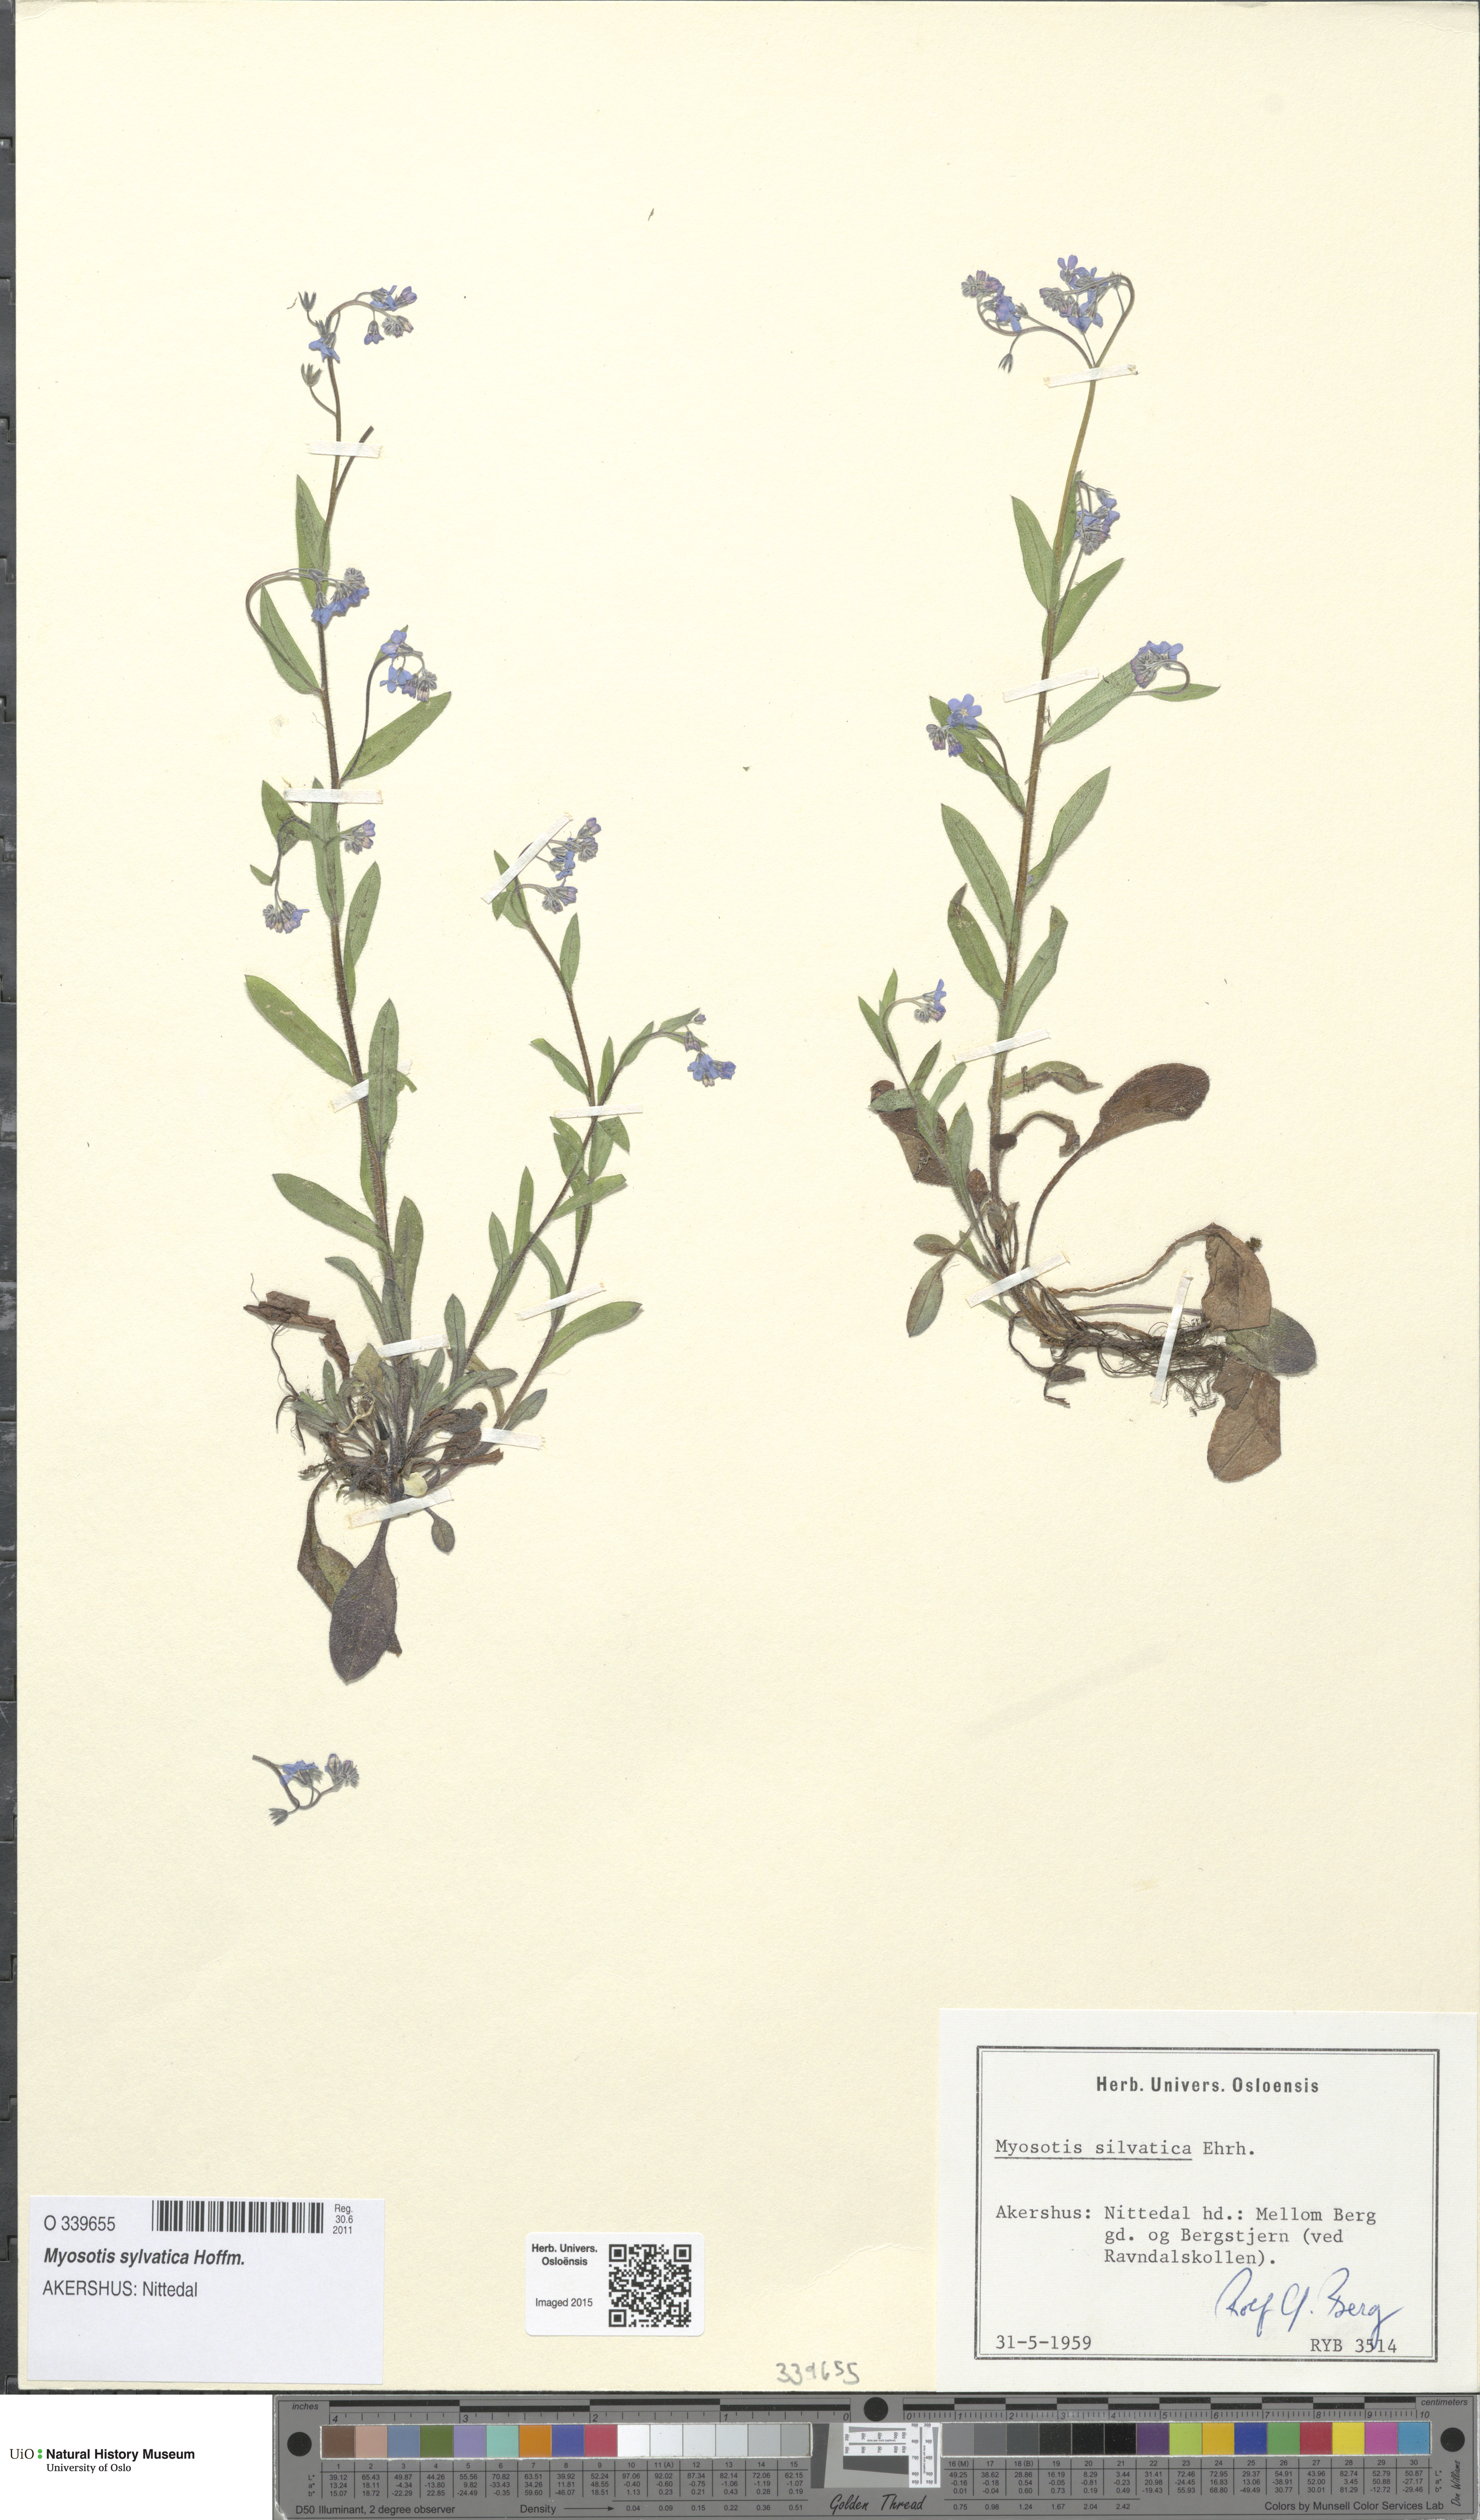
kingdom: Plantae
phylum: Tracheophyta
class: Magnoliopsida
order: Boraginales
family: Boraginaceae
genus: Myosotis
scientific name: Myosotis sylvatica
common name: Wood forget-me-not
